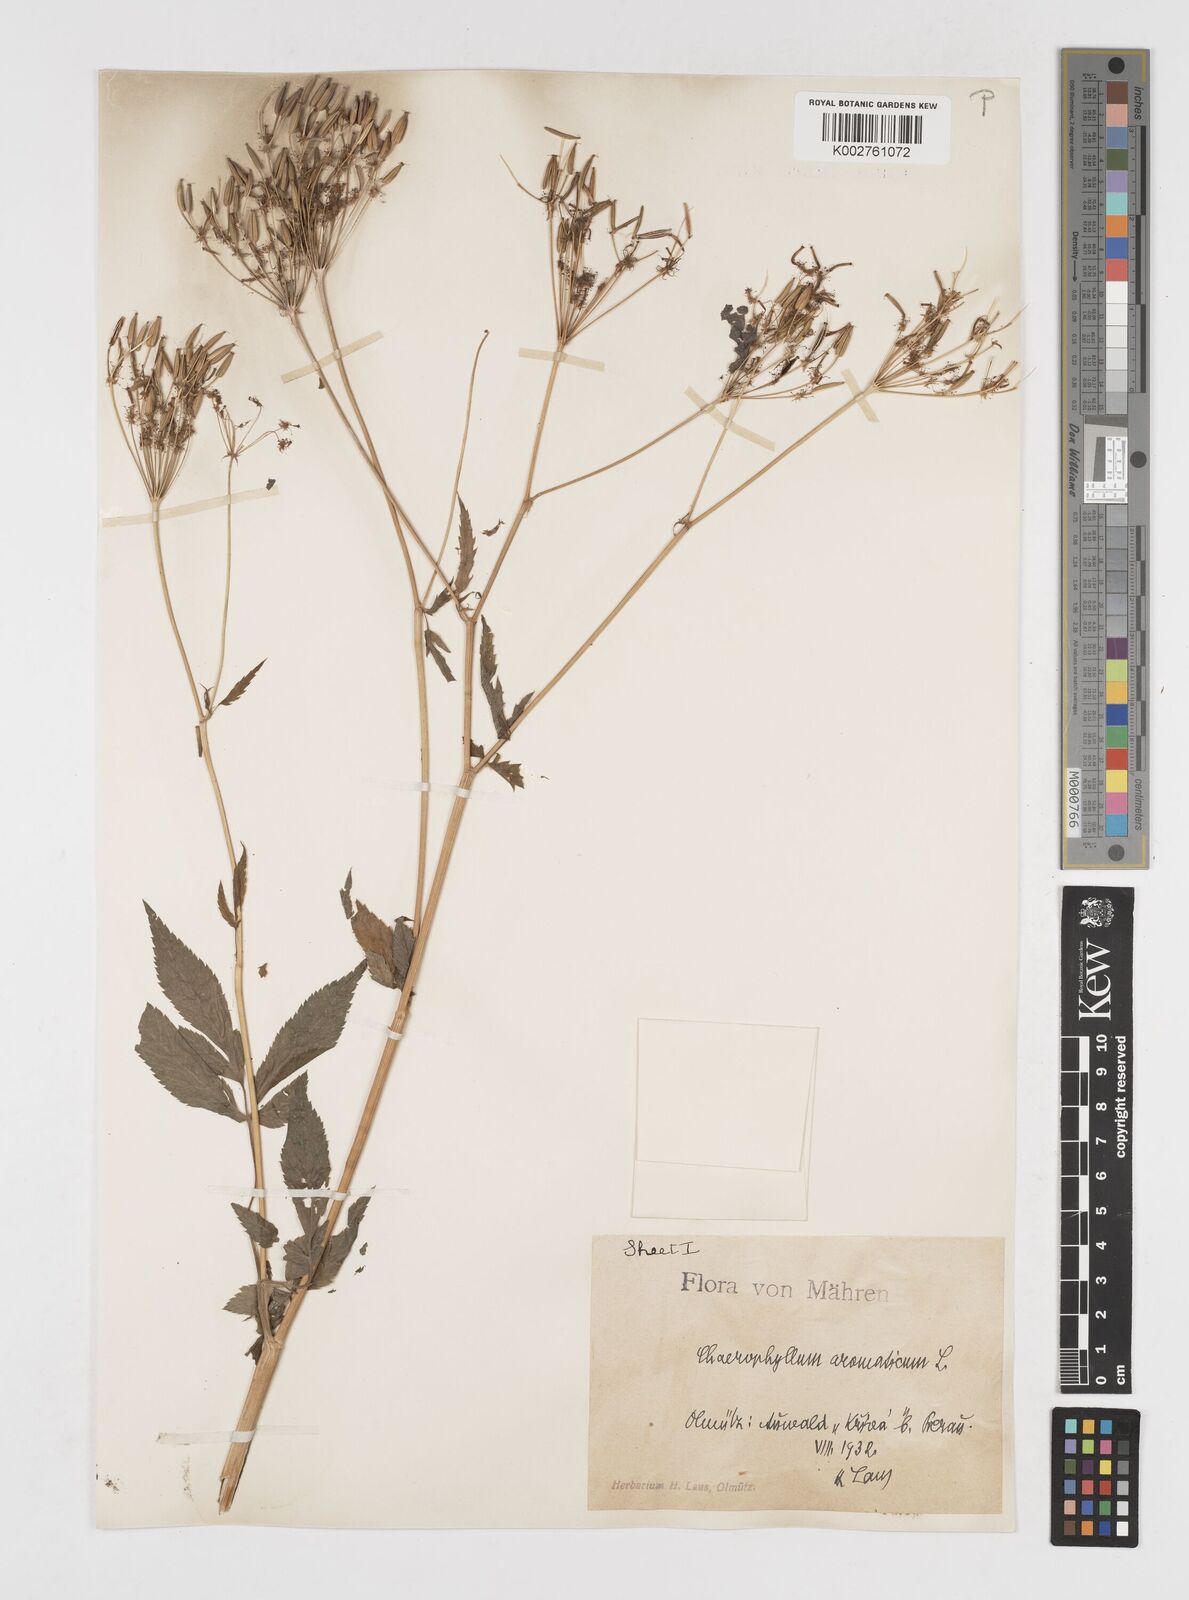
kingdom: Plantae
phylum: Tracheophyta
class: Magnoliopsida
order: Apiales
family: Apiaceae
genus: Chaerophyllum
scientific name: Chaerophyllum aromaticum
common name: Broadleaf chervil
